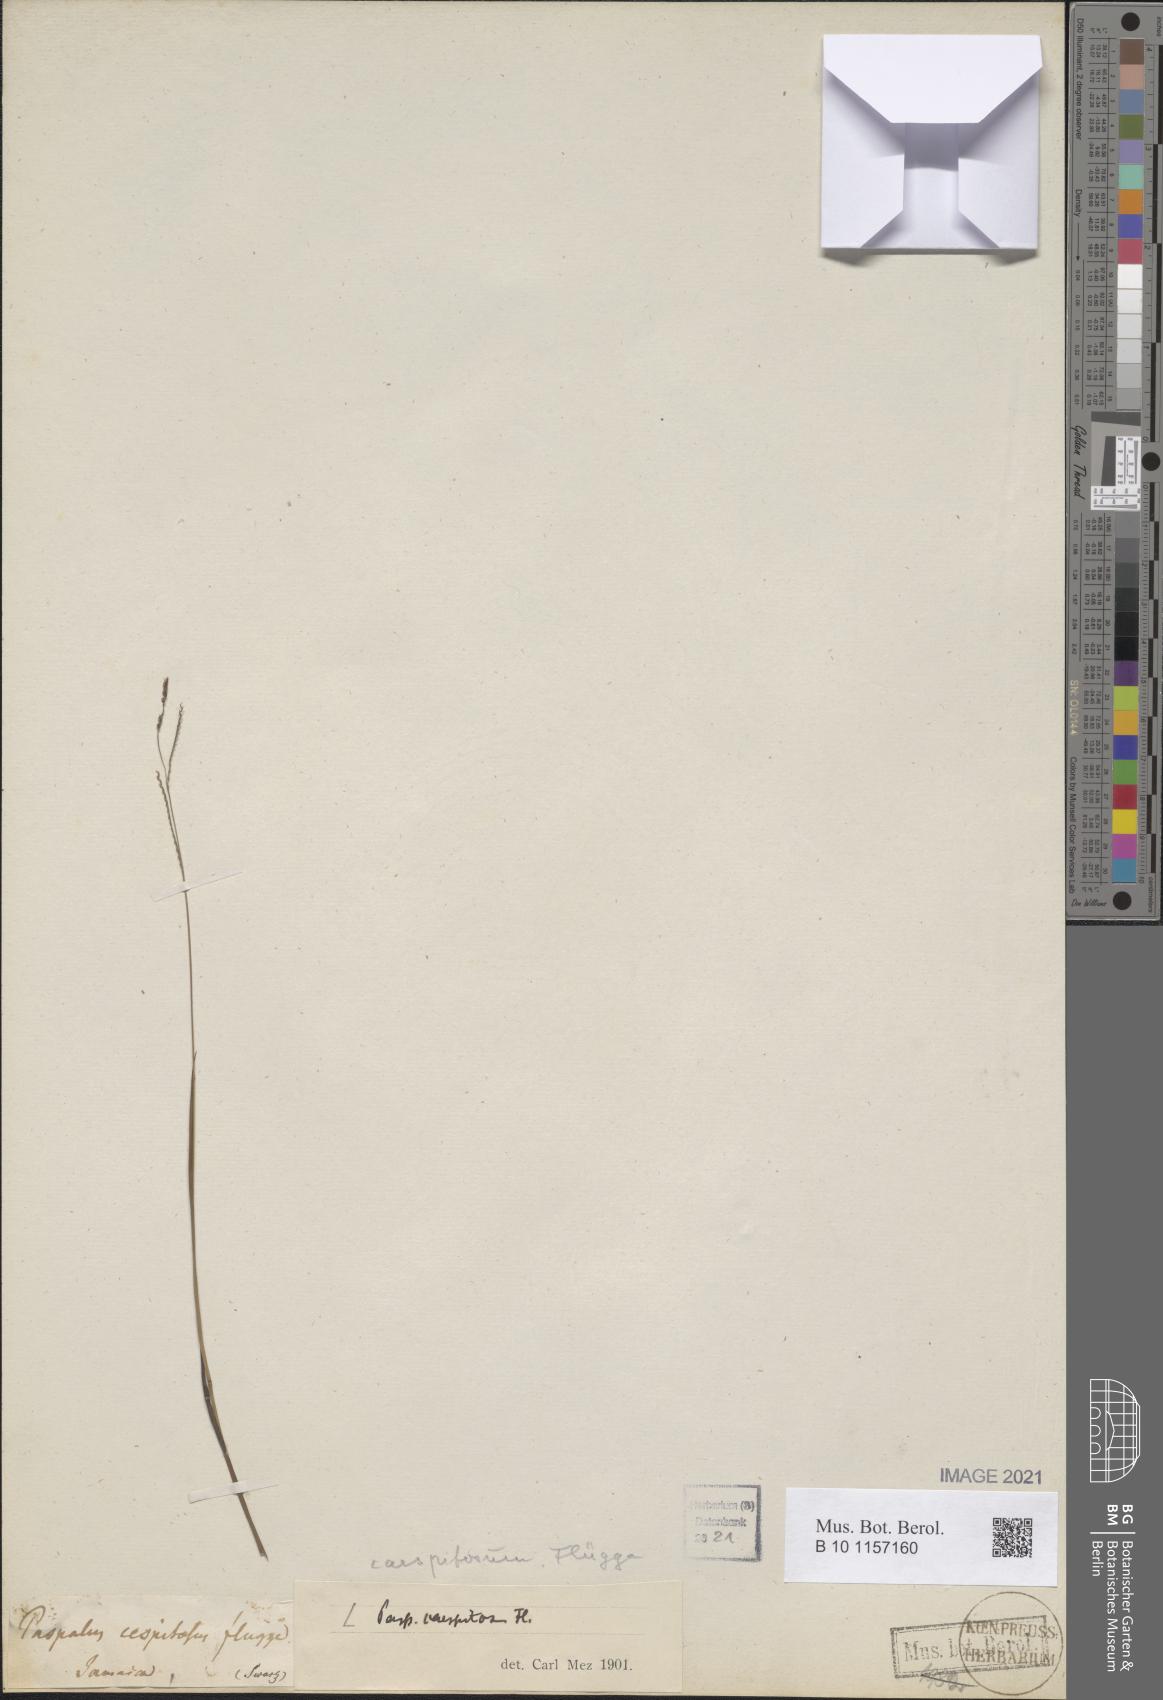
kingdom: Plantae
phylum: Tracheophyta
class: Liliopsida
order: Poales
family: Poaceae
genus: Paspalum
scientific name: Paspalum caespitosum
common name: Blue crowngrass
